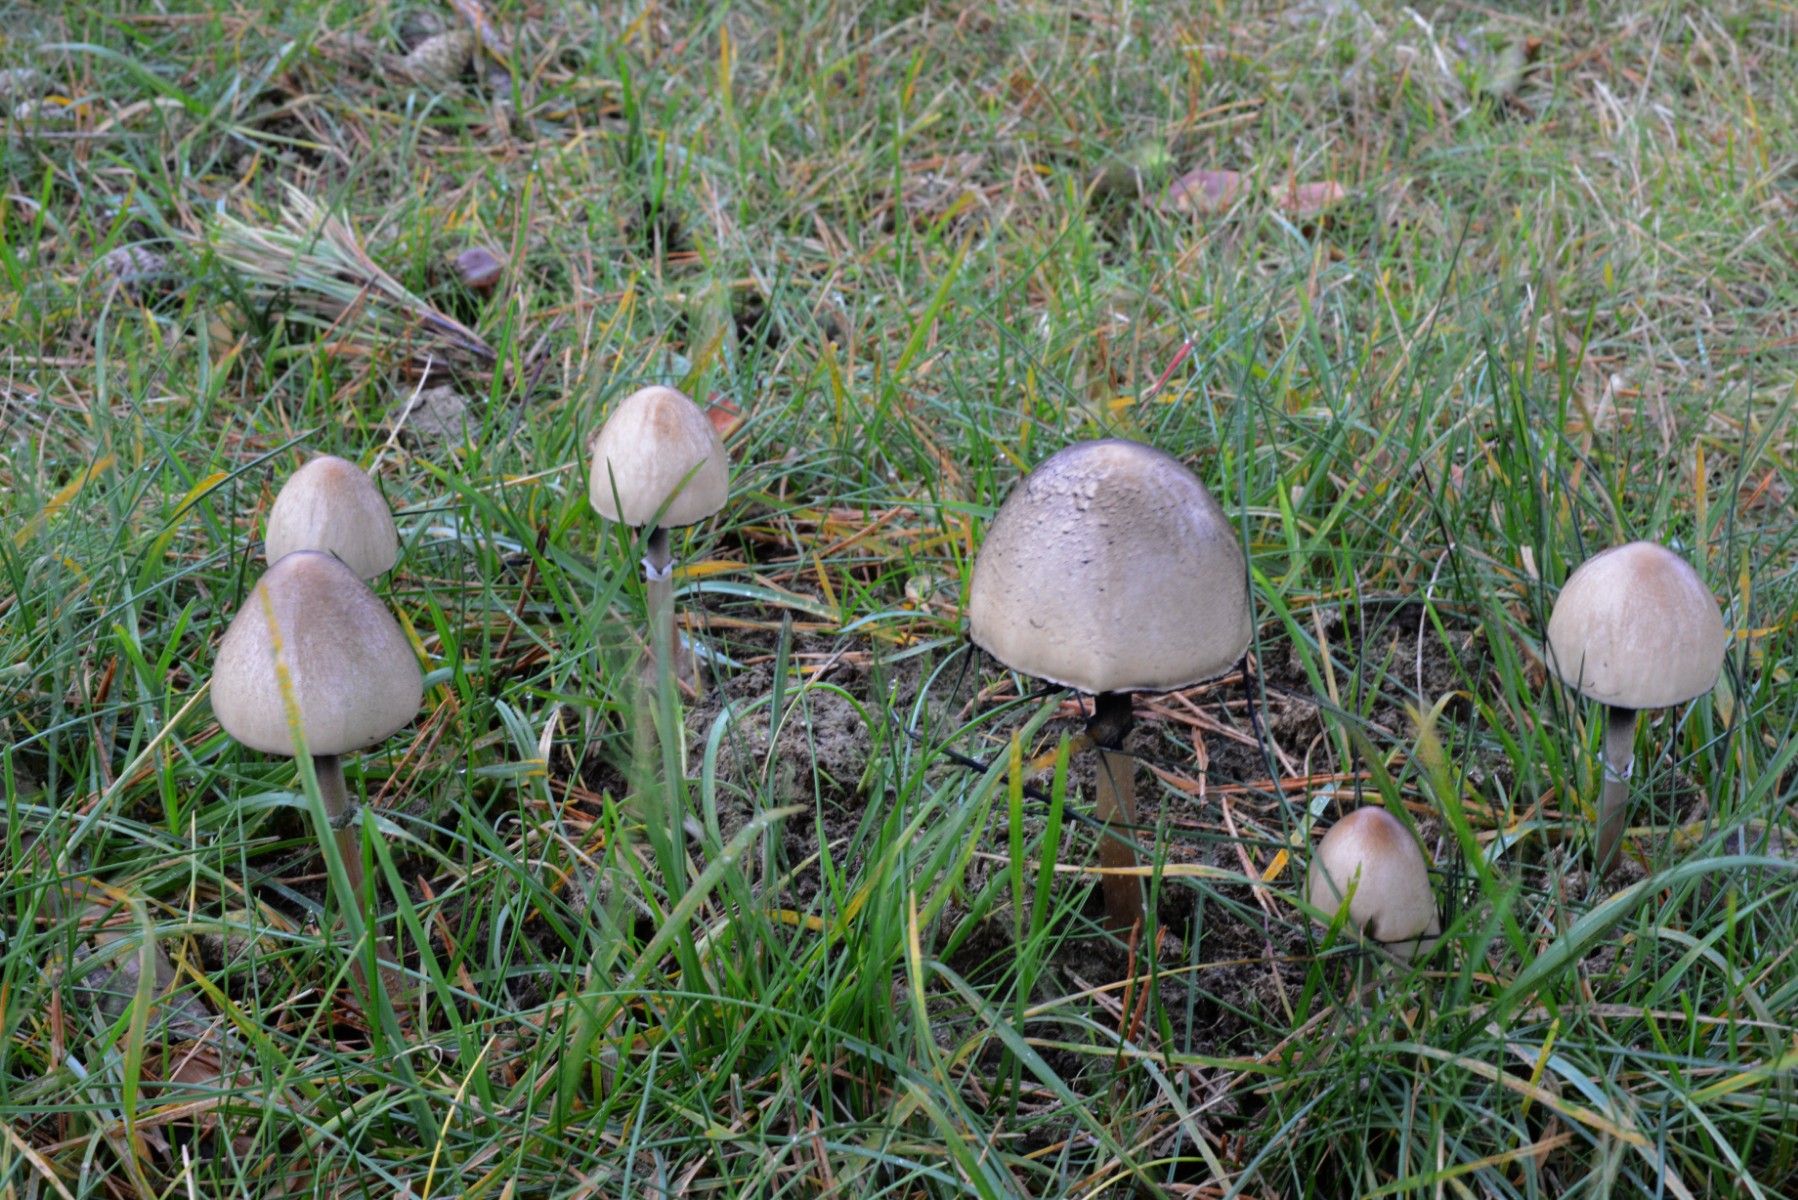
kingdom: Fungi
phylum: Basidiomycota
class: Agaricomycetes
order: Agaricales
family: Bolbitiaceae
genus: Panaeolus
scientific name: Panaeolus semiovatus
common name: ring-glanshat
